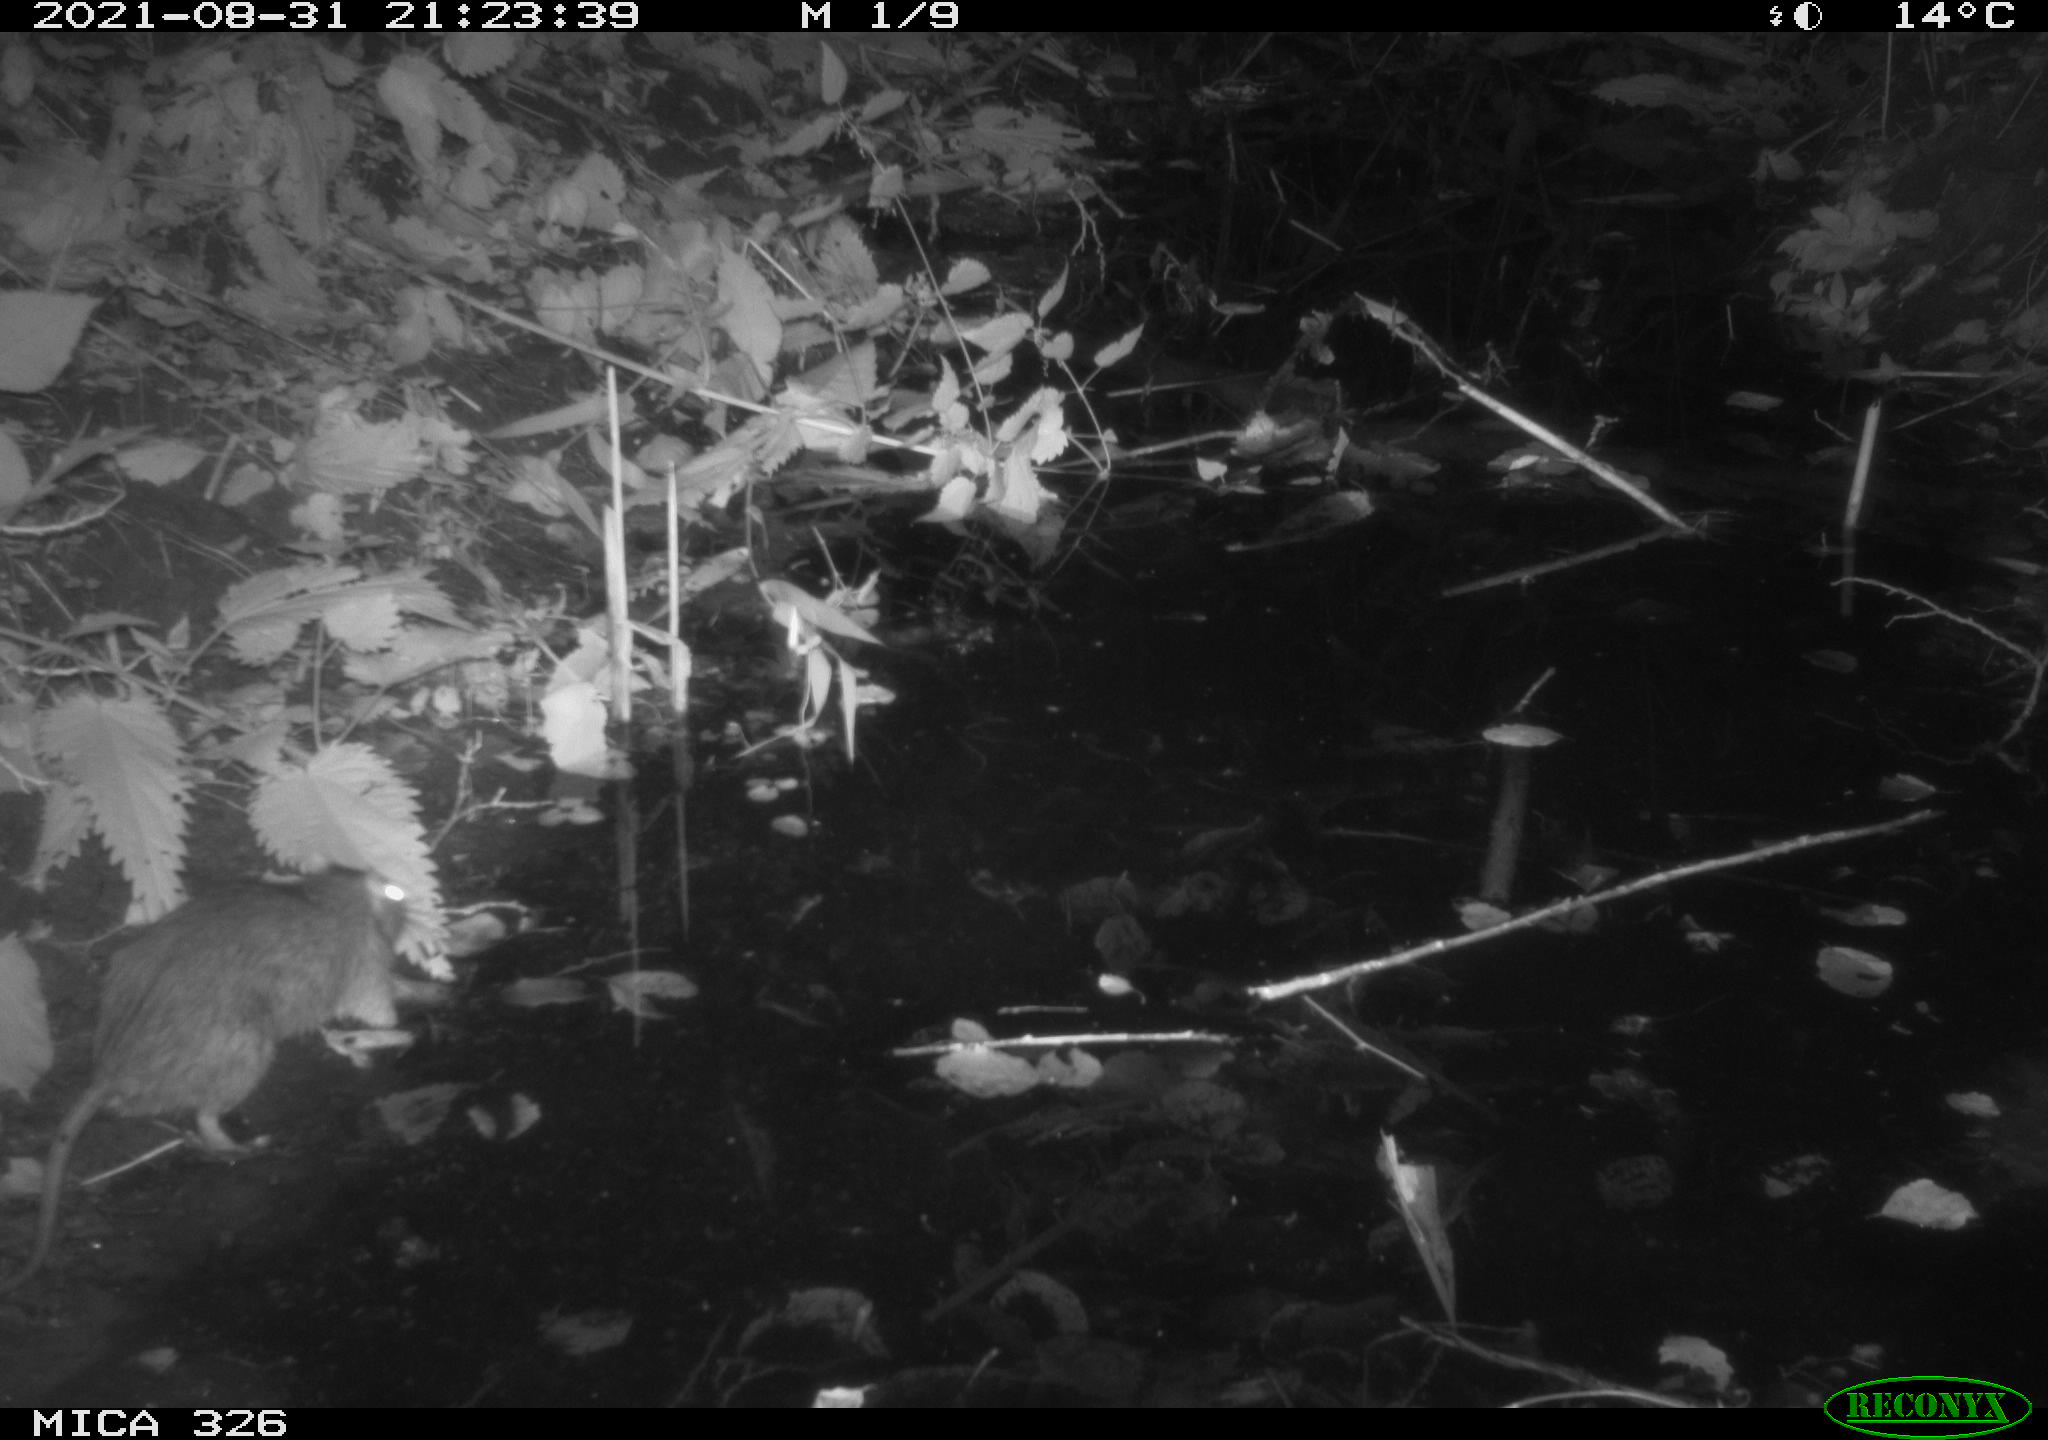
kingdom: Animalia
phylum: Chordata
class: Mammalia
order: Rodentia
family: Muridae
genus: Rattus
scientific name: Rattus norvegicus
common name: Brown rat
